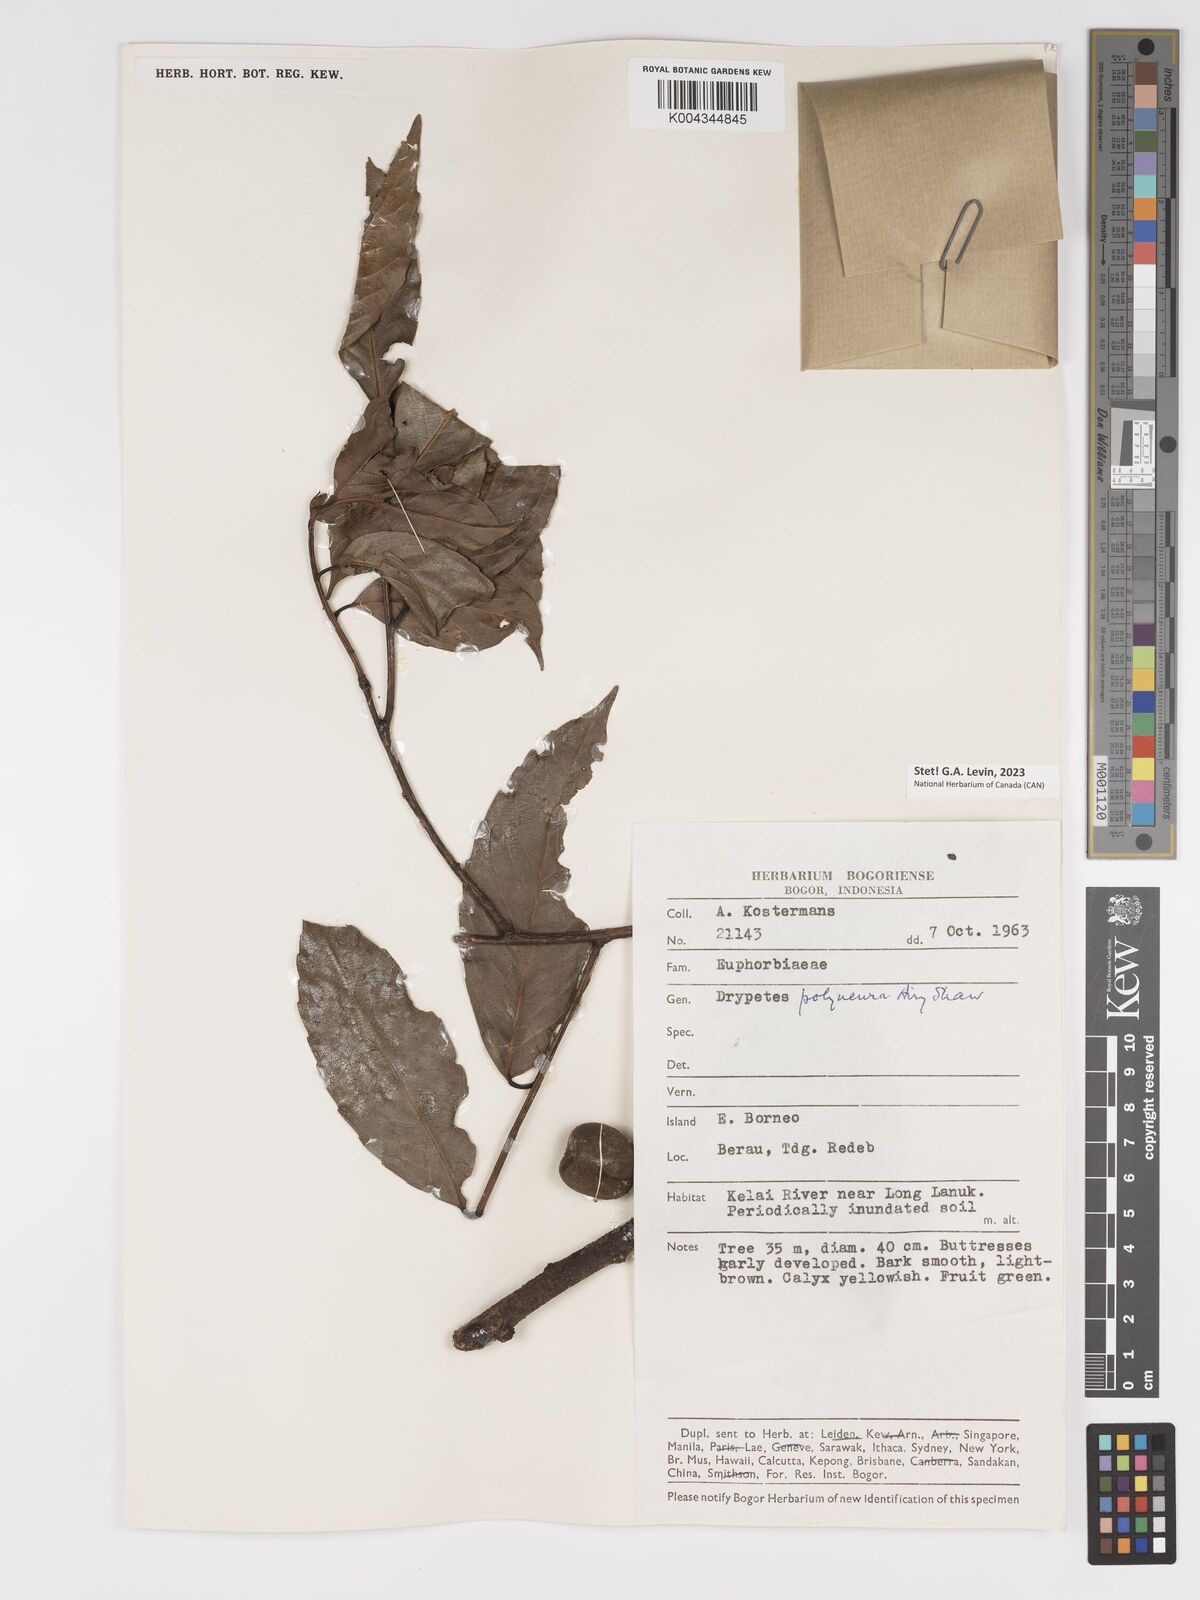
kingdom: Plantae
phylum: Tracheophyta
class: Magnoliopsida
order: Malpighiales
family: Putranjivaceae
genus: Drypetes
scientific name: Drypetes polyneura
